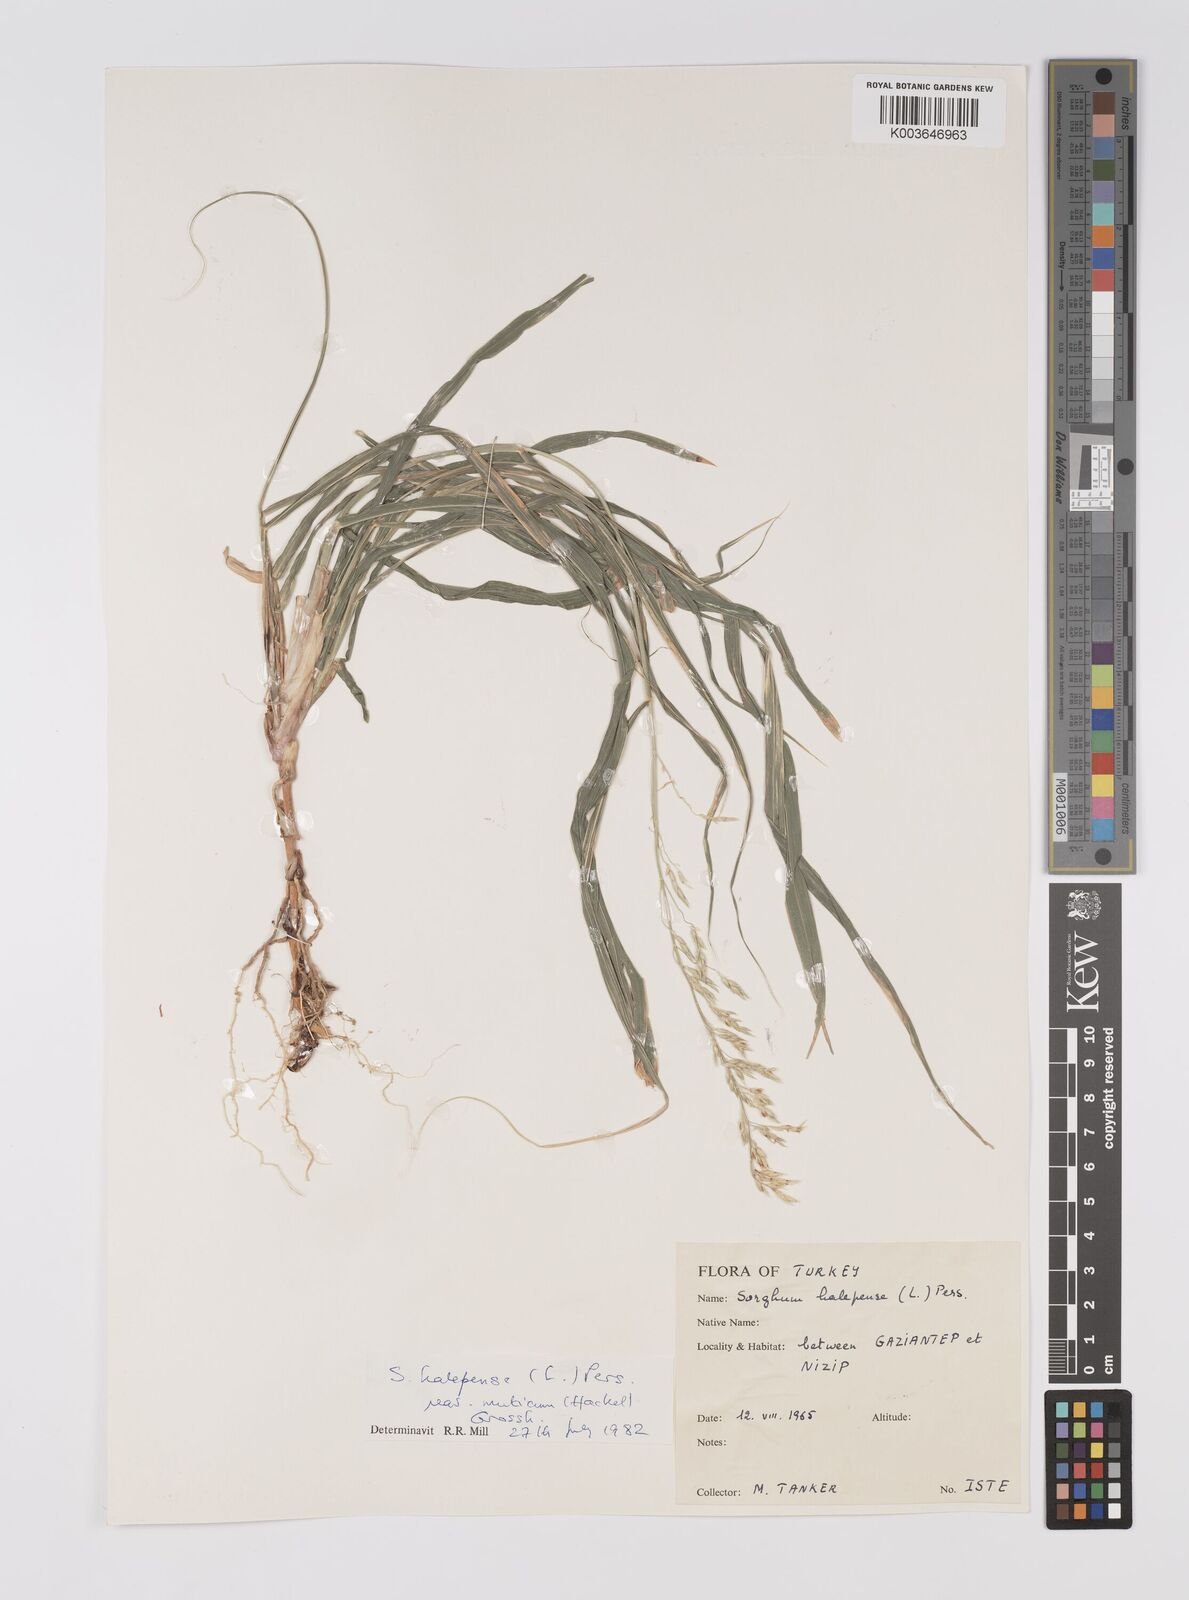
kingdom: Plantae
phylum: Tracheophyta
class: Liliopsida
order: Poales
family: Poaceae
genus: Sorghum
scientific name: Sorghum halepense
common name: Johnson-grass
